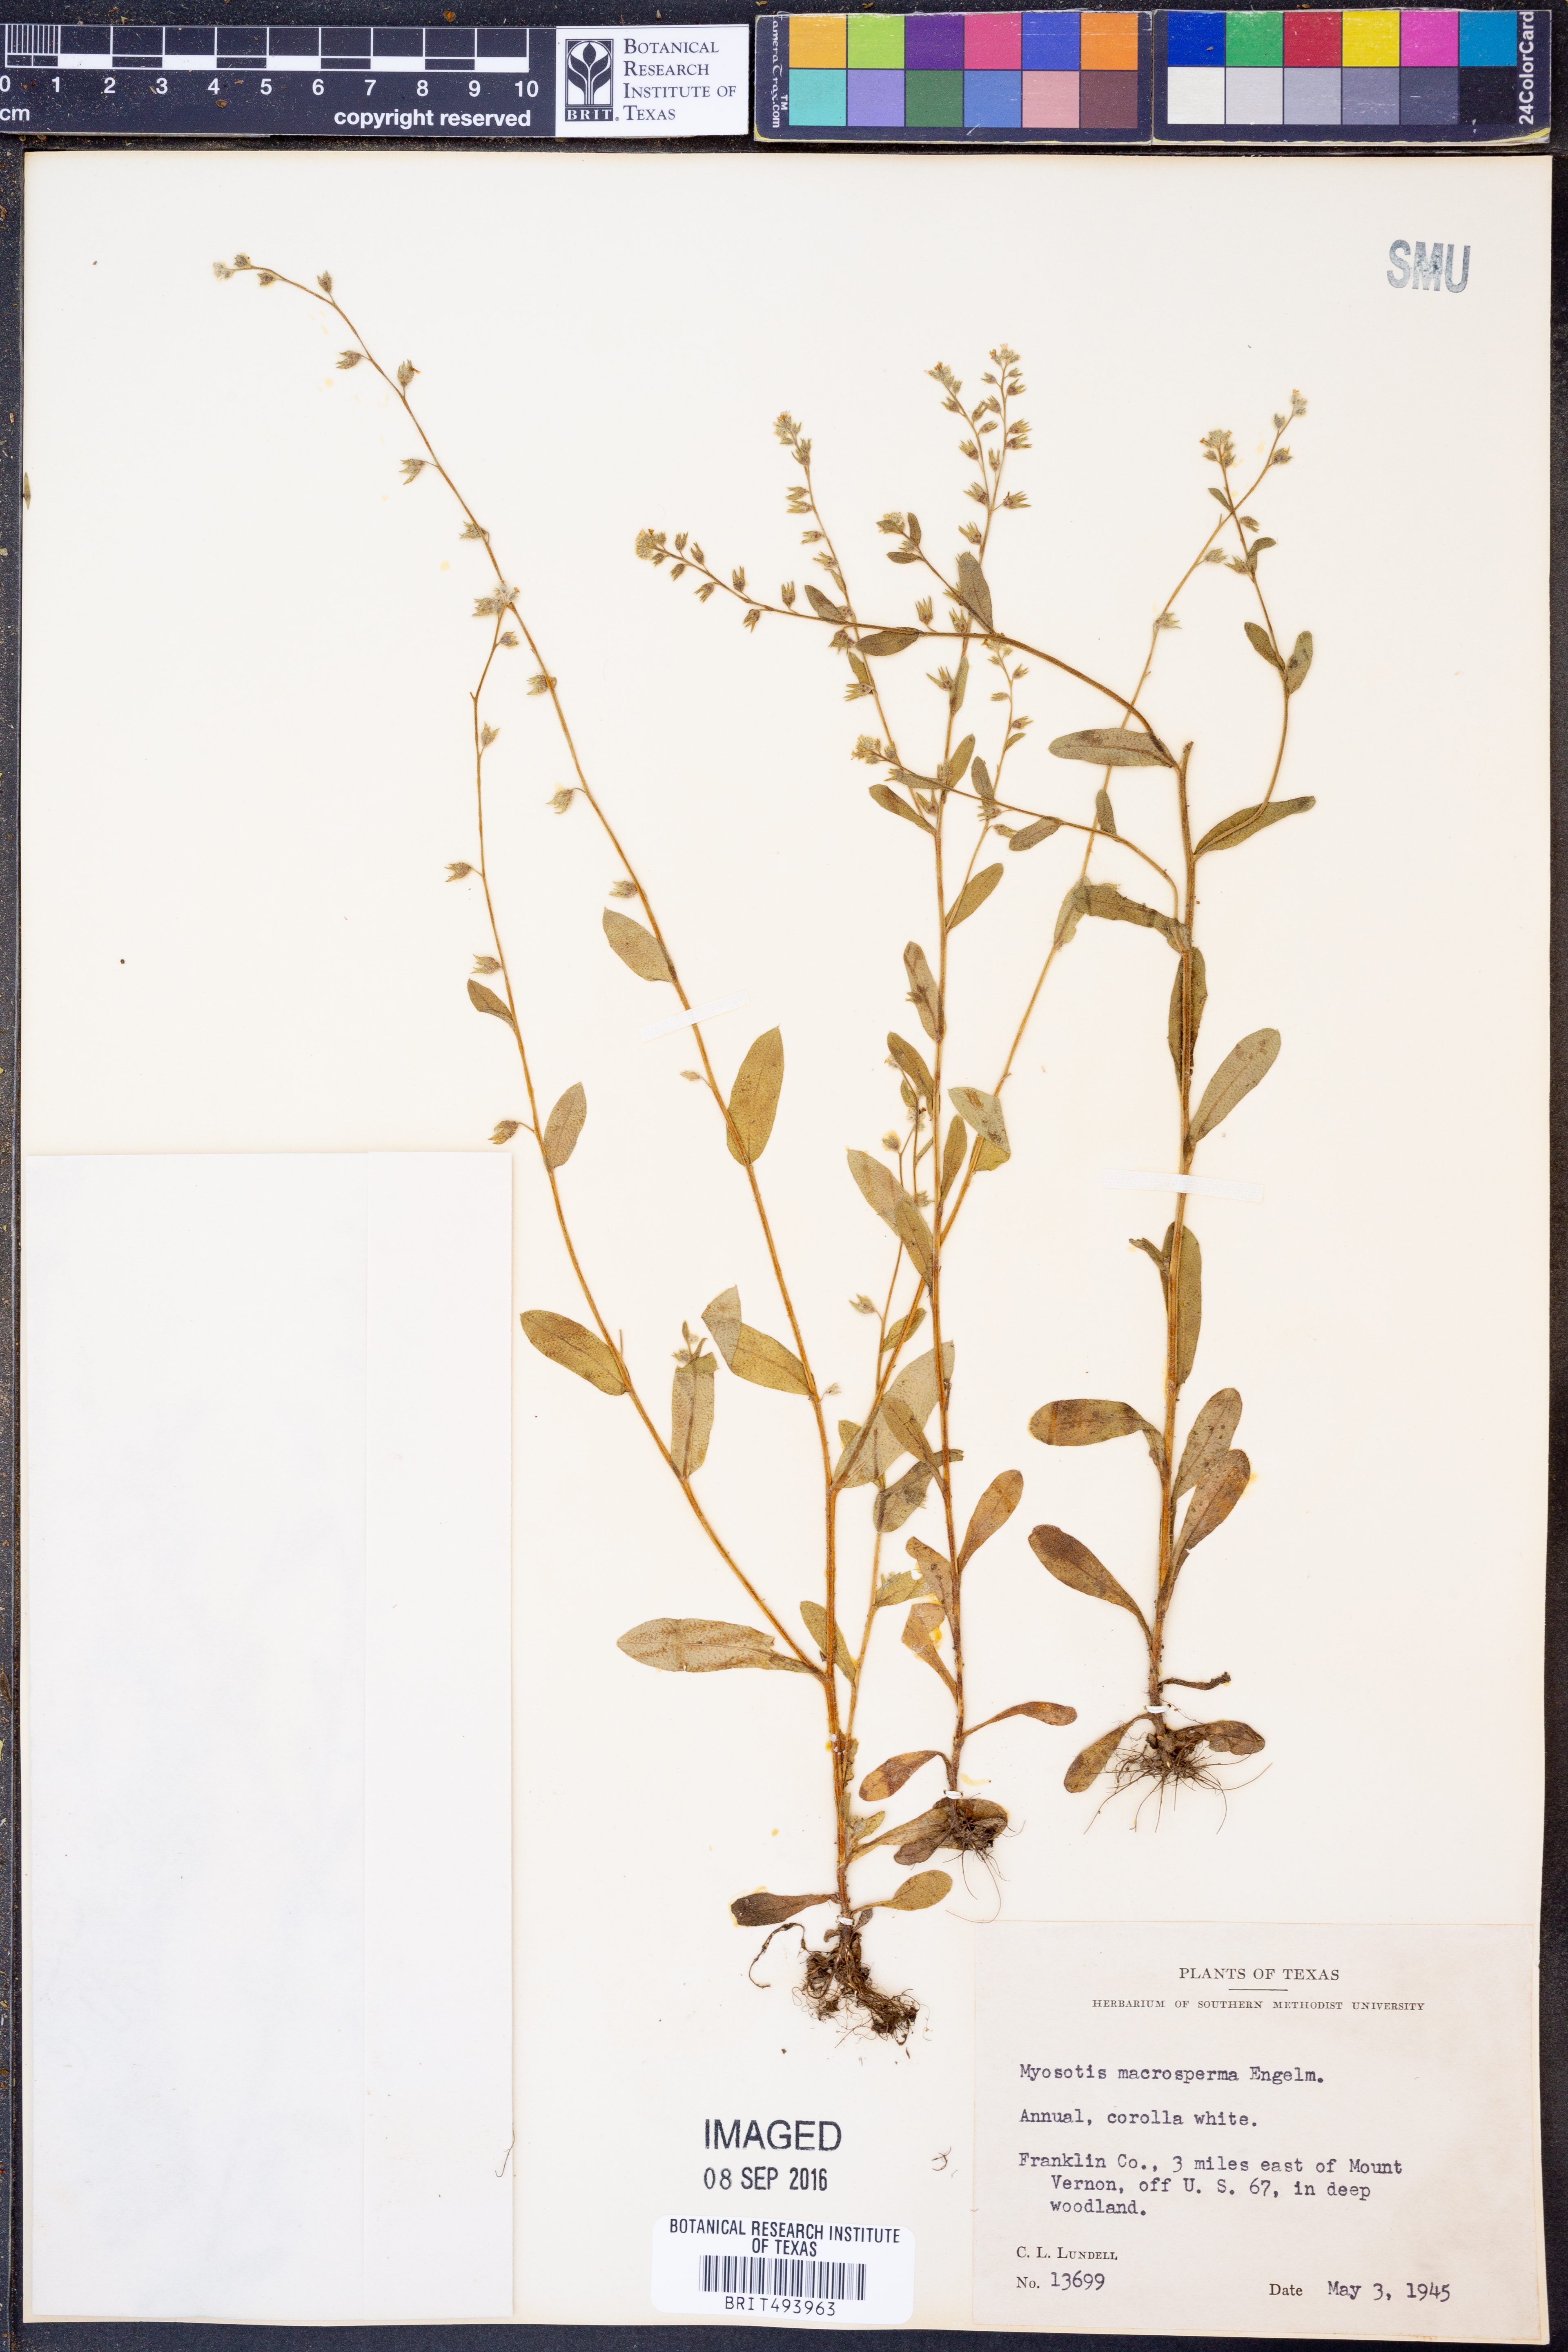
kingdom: Plantae
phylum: Tracheophyta
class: Magnoliopsida
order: Boraginales
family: Boraginaceae
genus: Myosotis
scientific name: Myosotis macrosperma
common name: Large-seed forget-me-not
